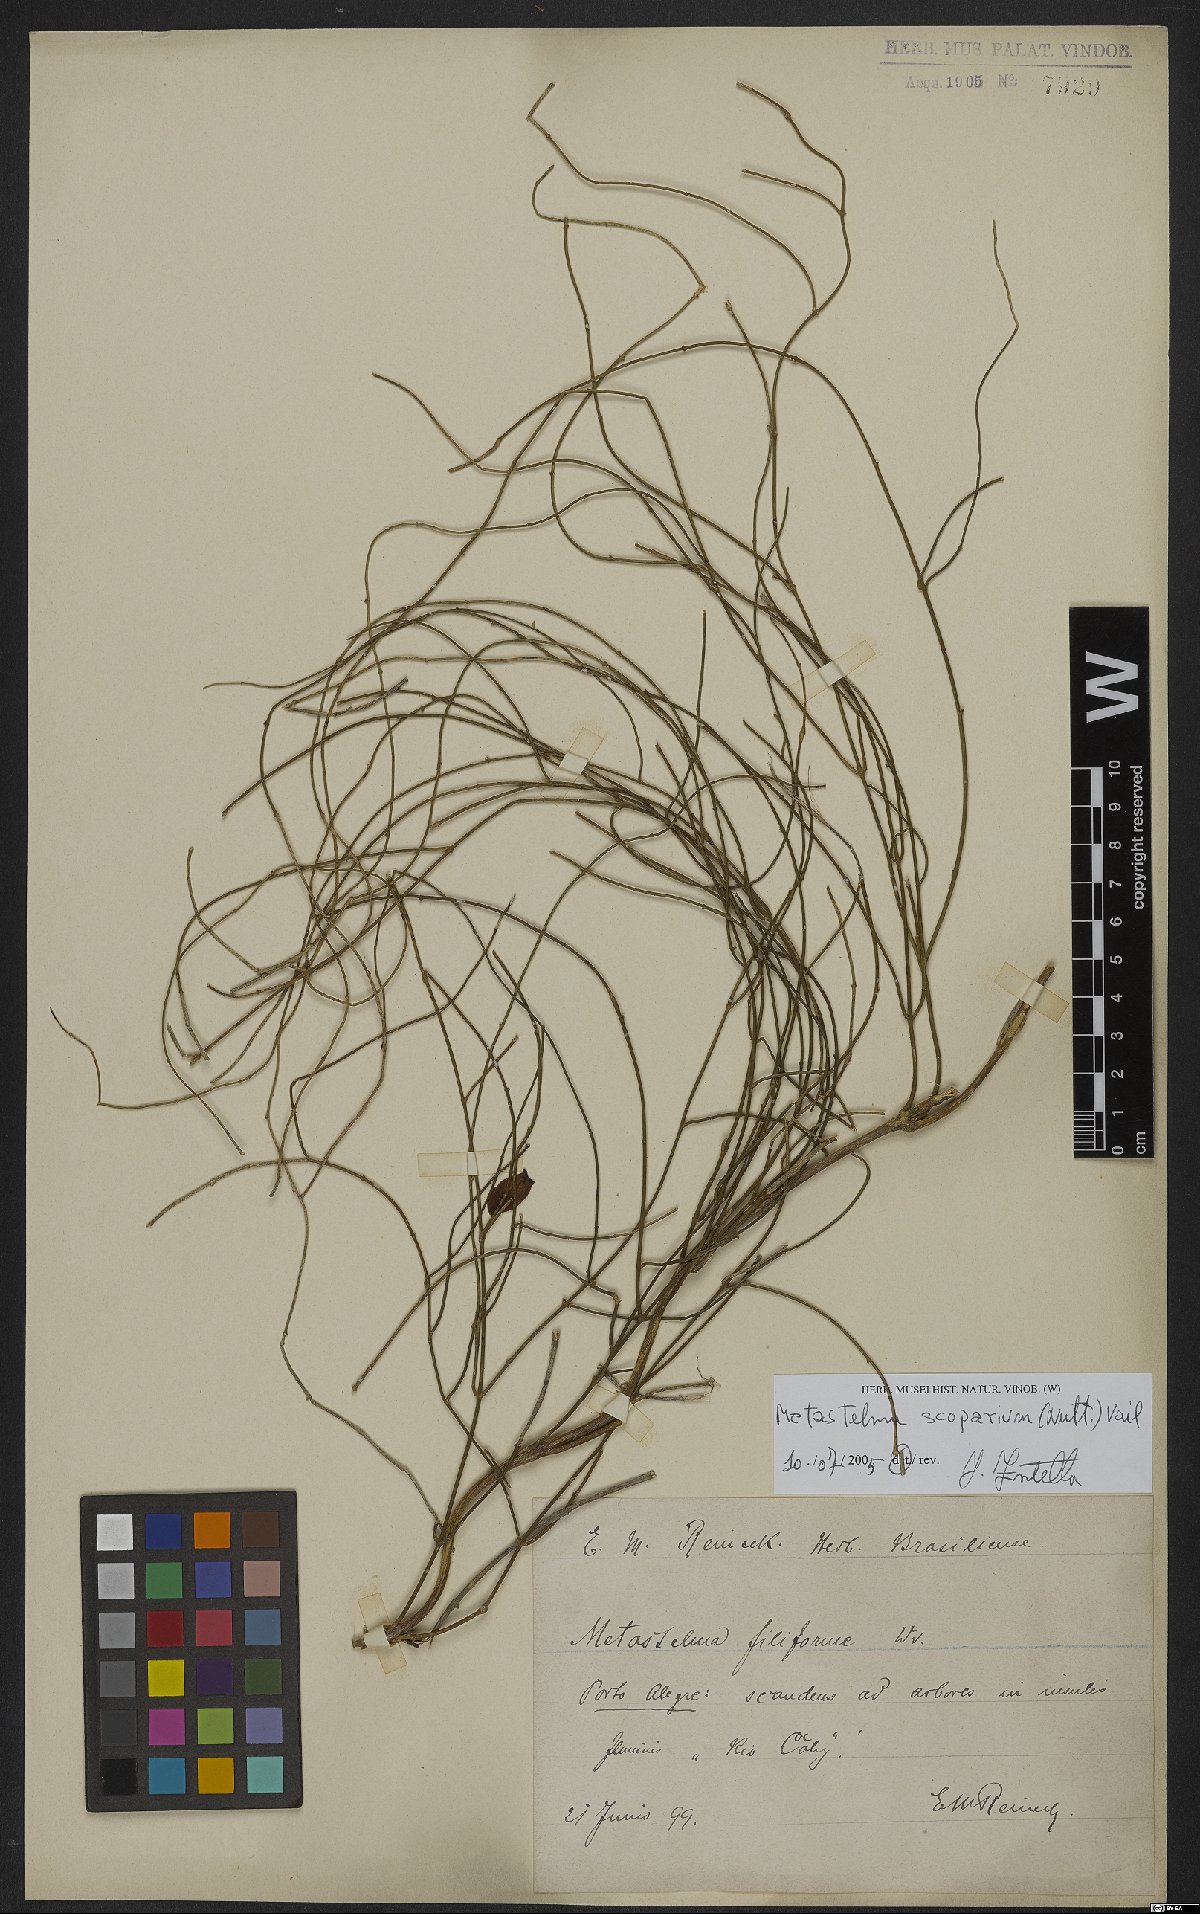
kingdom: Plantae
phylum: Tracheophyta
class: Magnoliopsida
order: Gentianales
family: Apocynaceae
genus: Orthosia
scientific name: Orthosia scoparia
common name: Leafless swallow-wort
